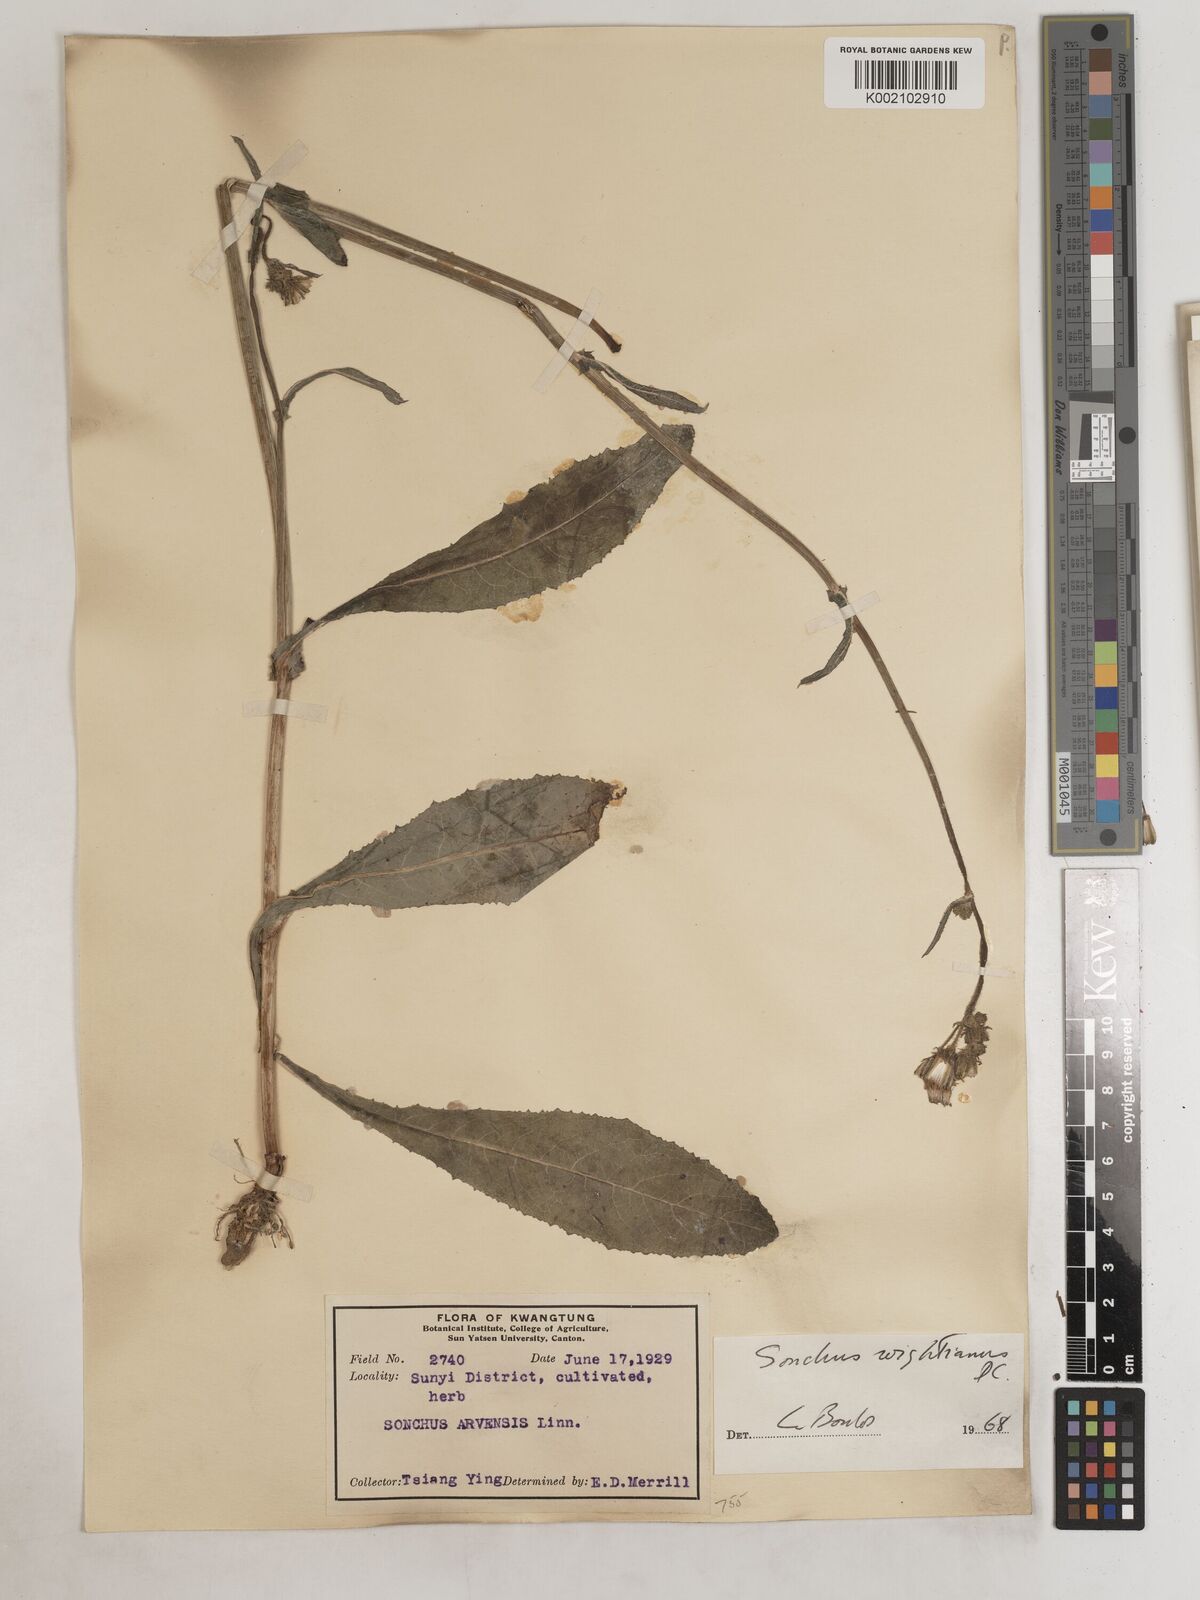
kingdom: Plantae
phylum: Tracheophyta
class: Magnoliopsida
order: Asterales
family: Asteraceae
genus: Sonchus
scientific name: Sonchus wightianus
